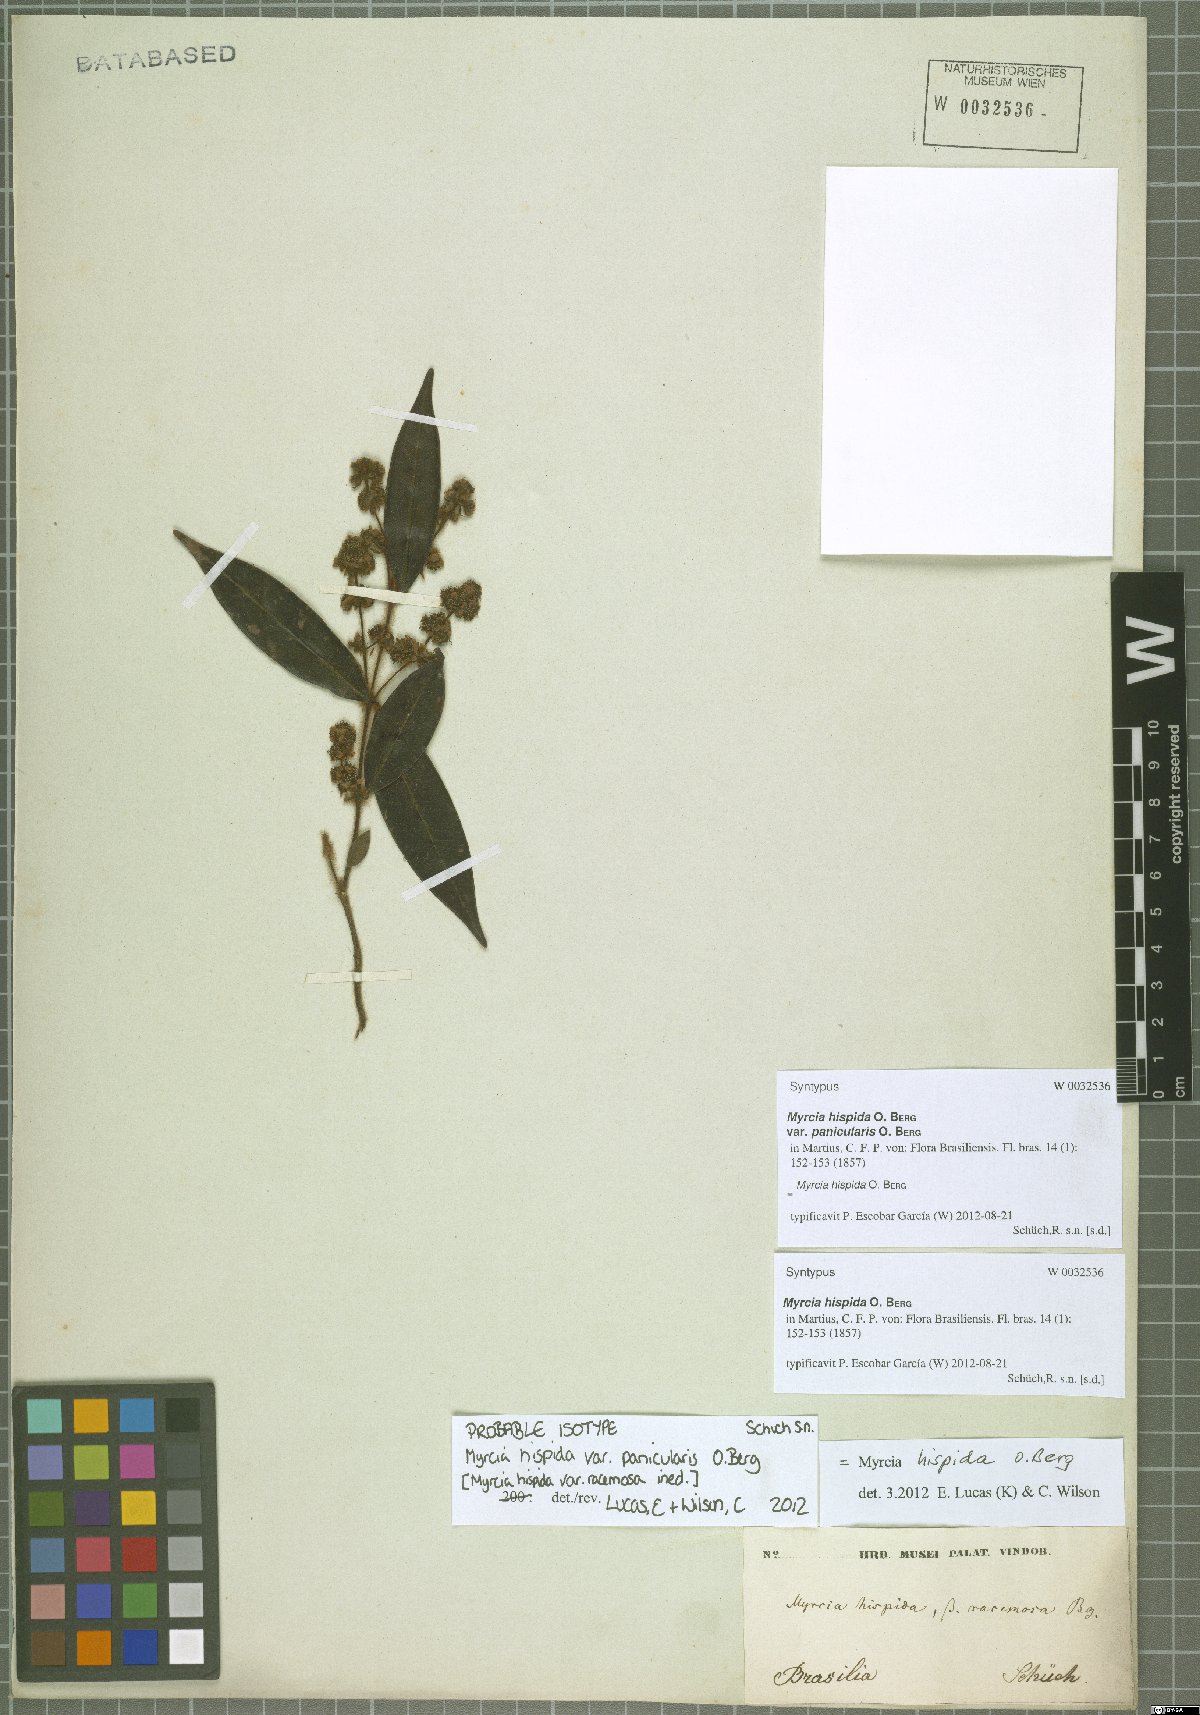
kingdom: Plantae
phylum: Tracheophyta
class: Magnoliopsida
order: Myrtales
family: Myrtaceae
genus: Myrcia
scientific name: Myrcia hispida
